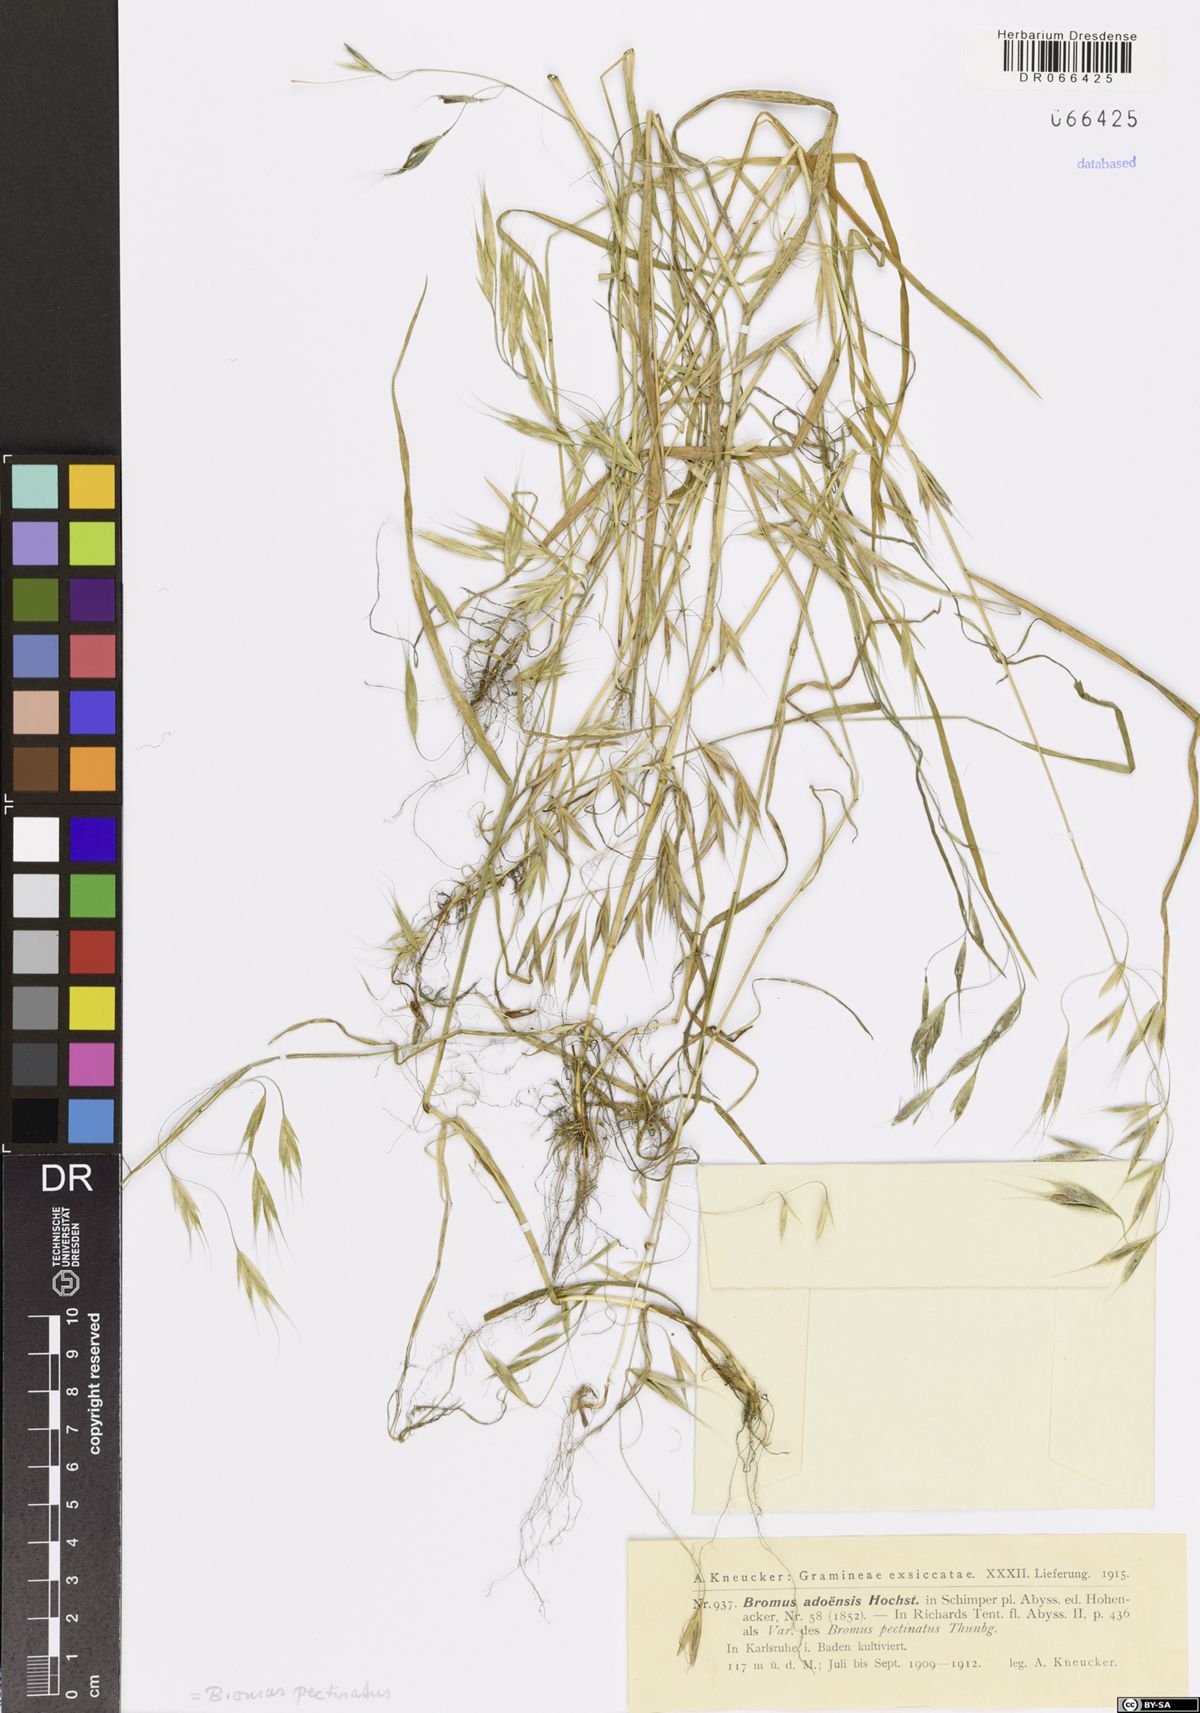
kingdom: Plantae
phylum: Tracheophyta
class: Liliopsida
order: Poales
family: Poaceae
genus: Bromus
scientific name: Bromus pectinatus
